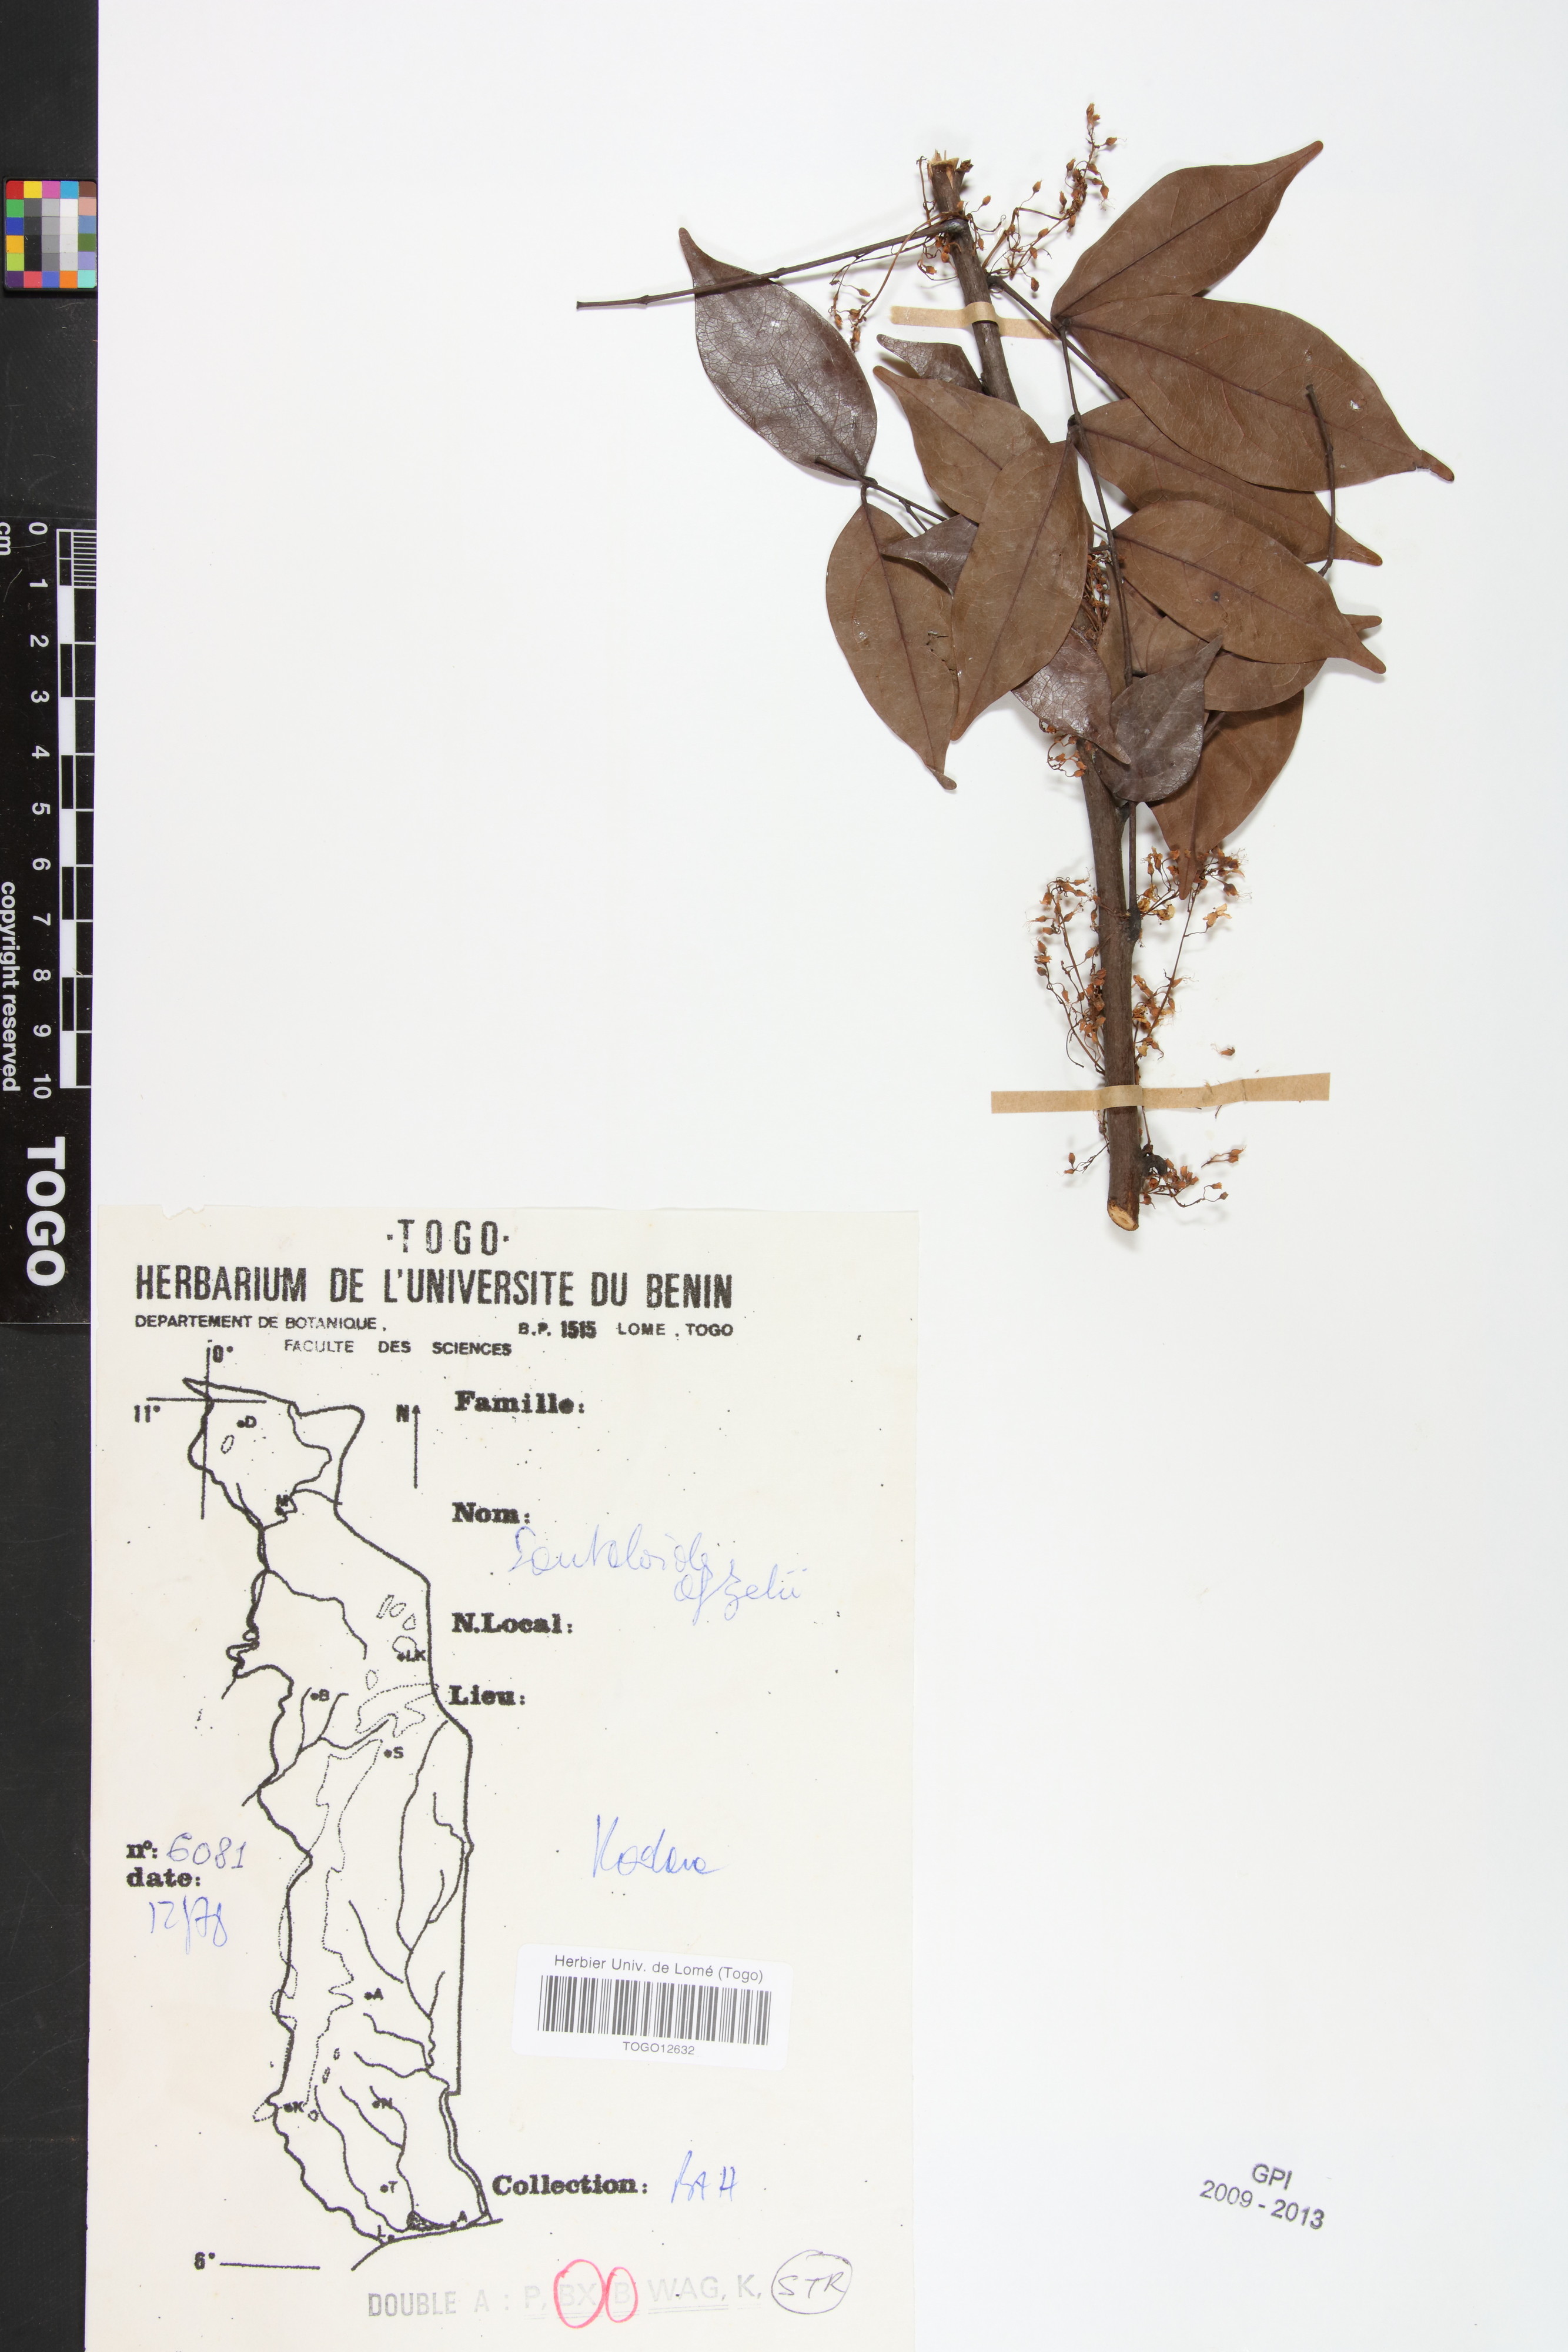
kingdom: Plantae
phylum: Tracheophyta
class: Magnoliopsida
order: Oxalidales
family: Connaraceae
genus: Rourea
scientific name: Rourea minor
